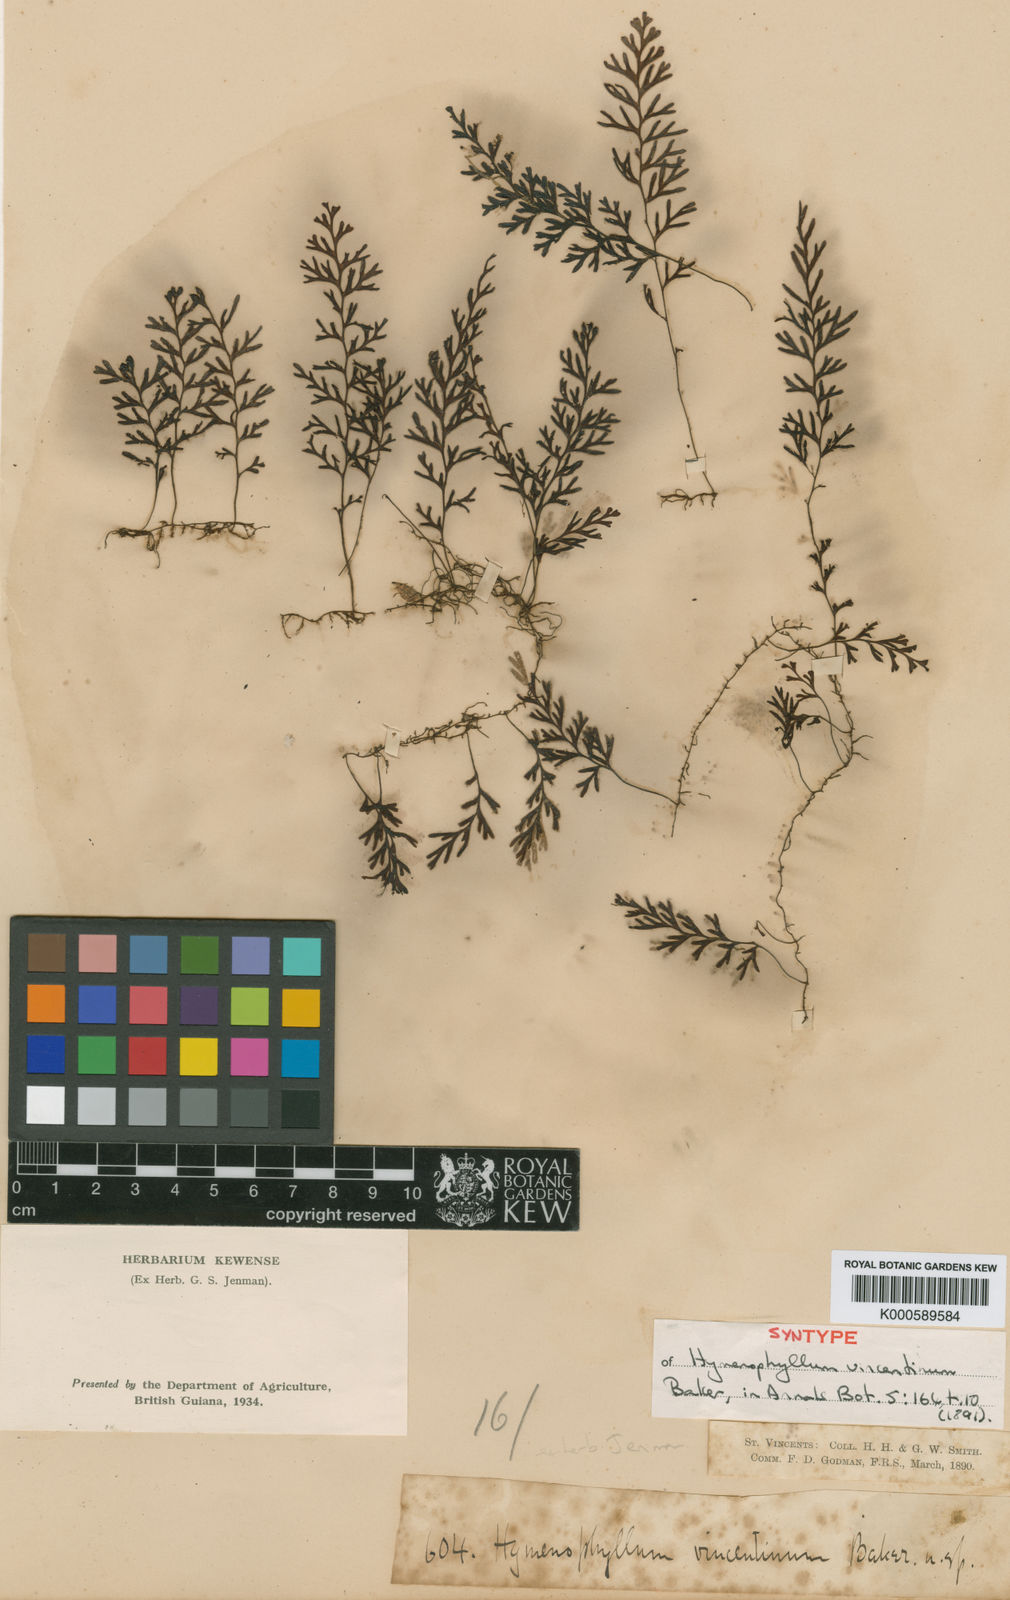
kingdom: Plantae
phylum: Tracheophyta
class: Polypodiopsida
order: Hymenophyllales
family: Hymenophyllaceae
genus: Hymenophyllum
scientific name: Hymenophyllum
